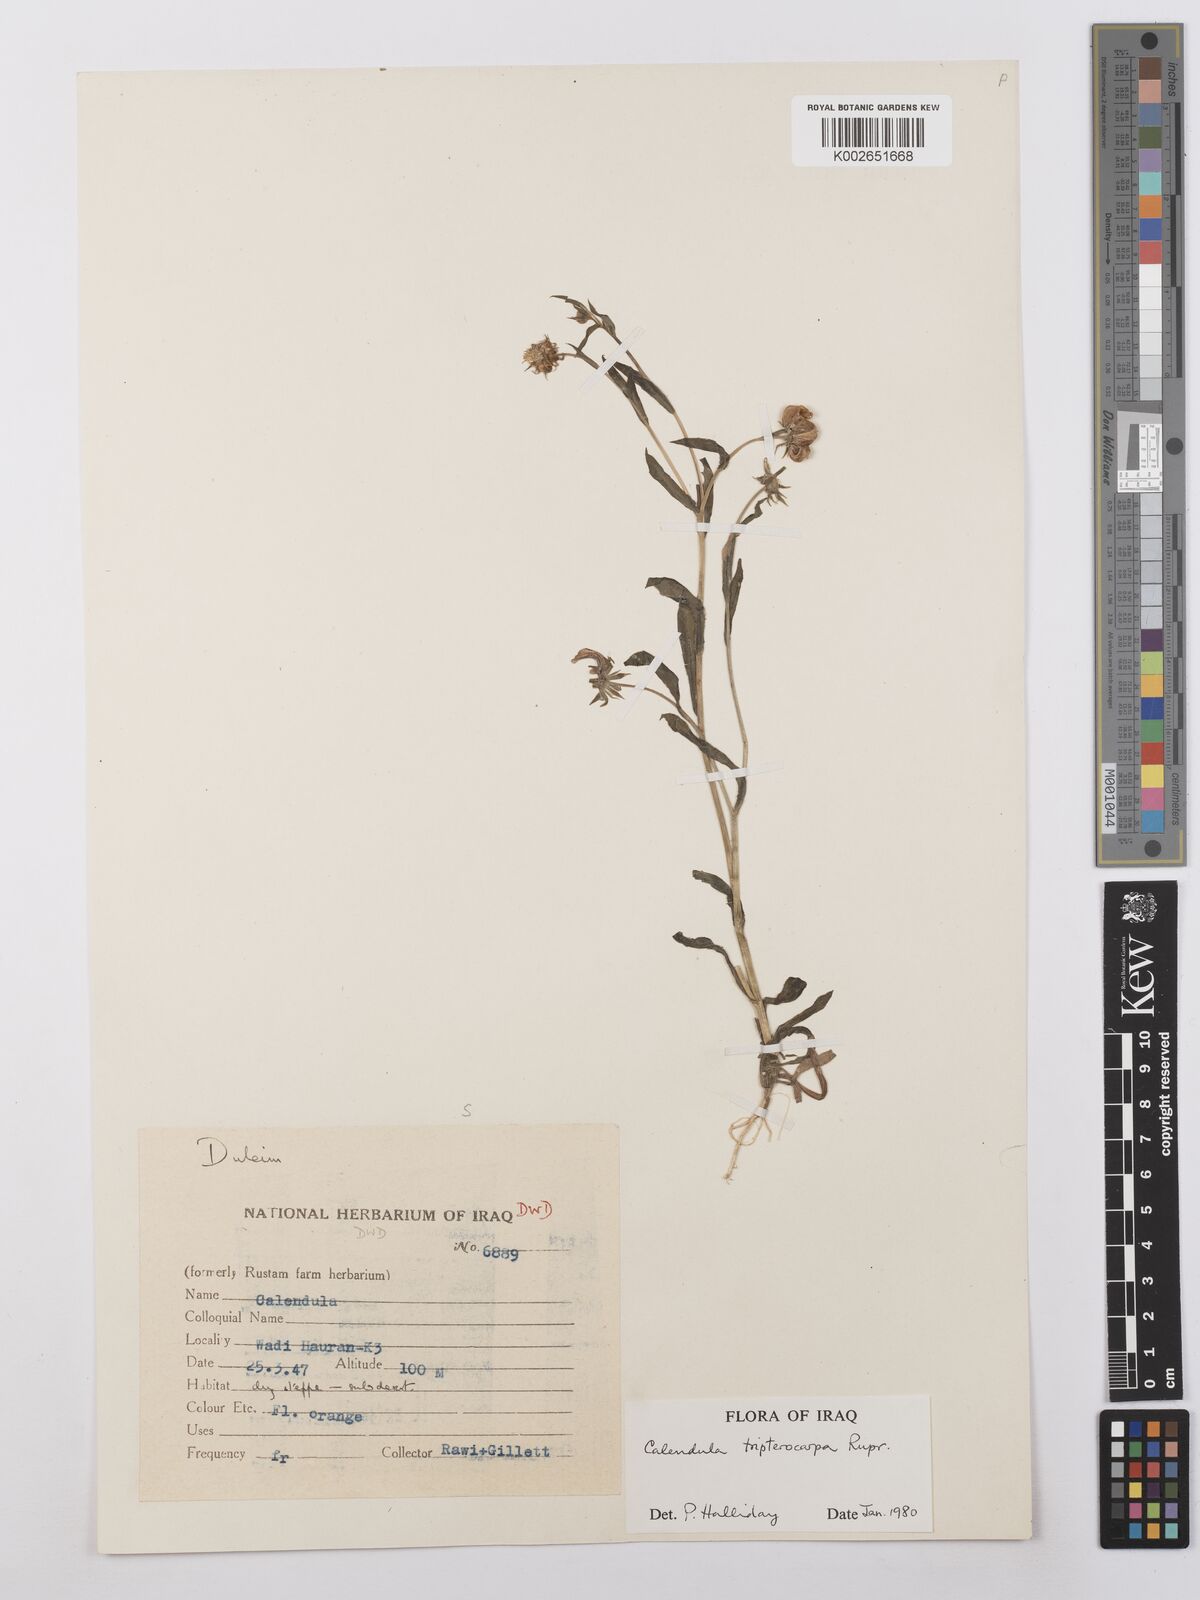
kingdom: Plantae
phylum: Tracheophyta
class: Magnoliopsida
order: Asterales
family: Asteraceae
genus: Calendula
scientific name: Calendula tripterocarpa
